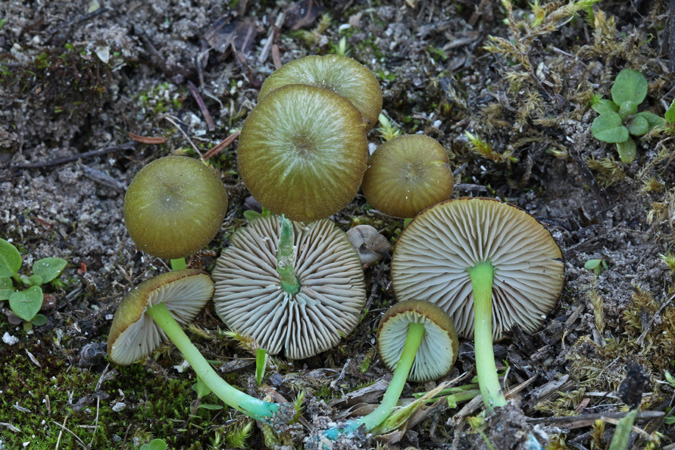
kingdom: Fungi
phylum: Basidiomycota
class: Agaricomycetes
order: Agaricales
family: Entolomataceae
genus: Entoloma
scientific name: Entoloma incanum
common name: grøngul rødblad
